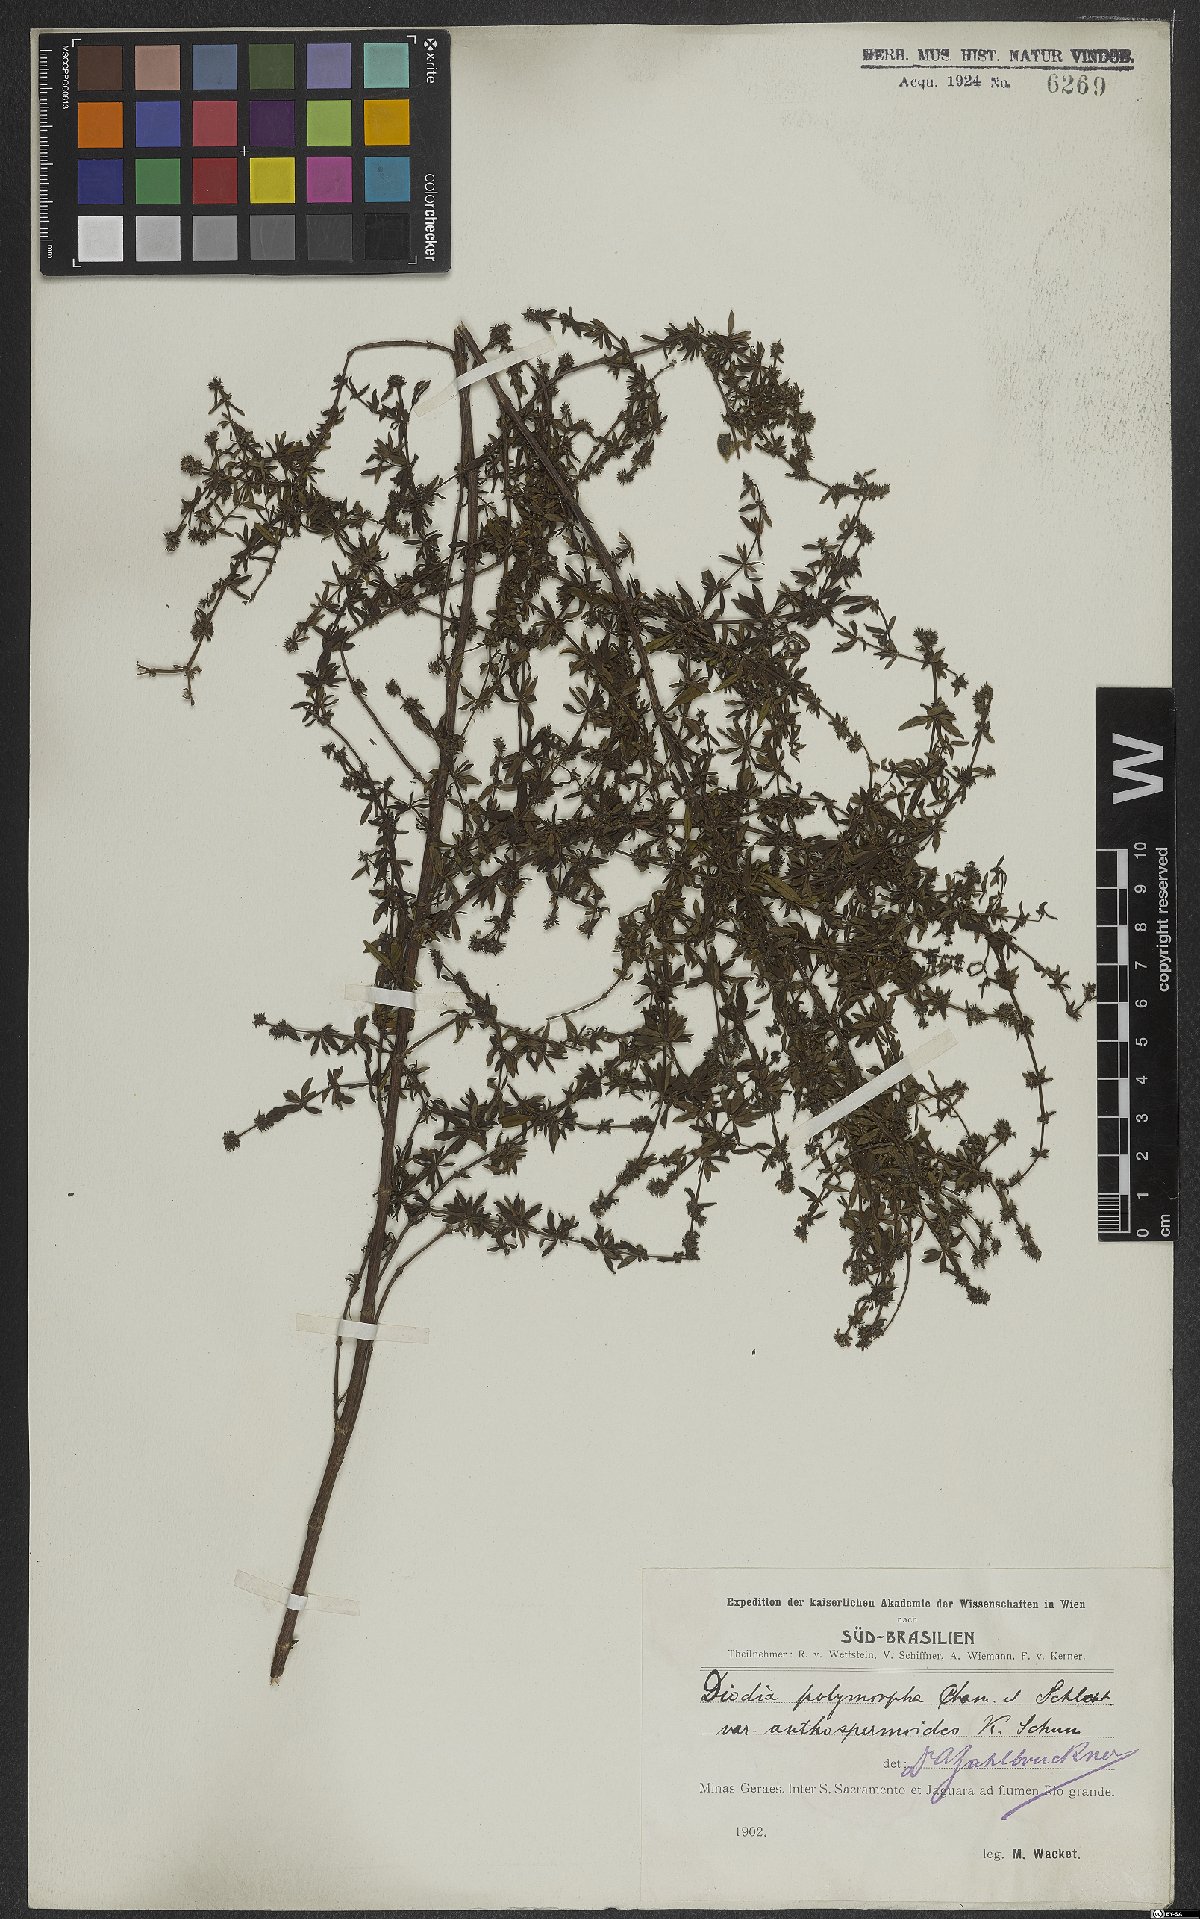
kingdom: Plantae
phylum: Tracheophyta
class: Magnoliopsida
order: Gentianales
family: Rubiaceae
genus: Galianthe
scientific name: Galianthe brasiliensis
